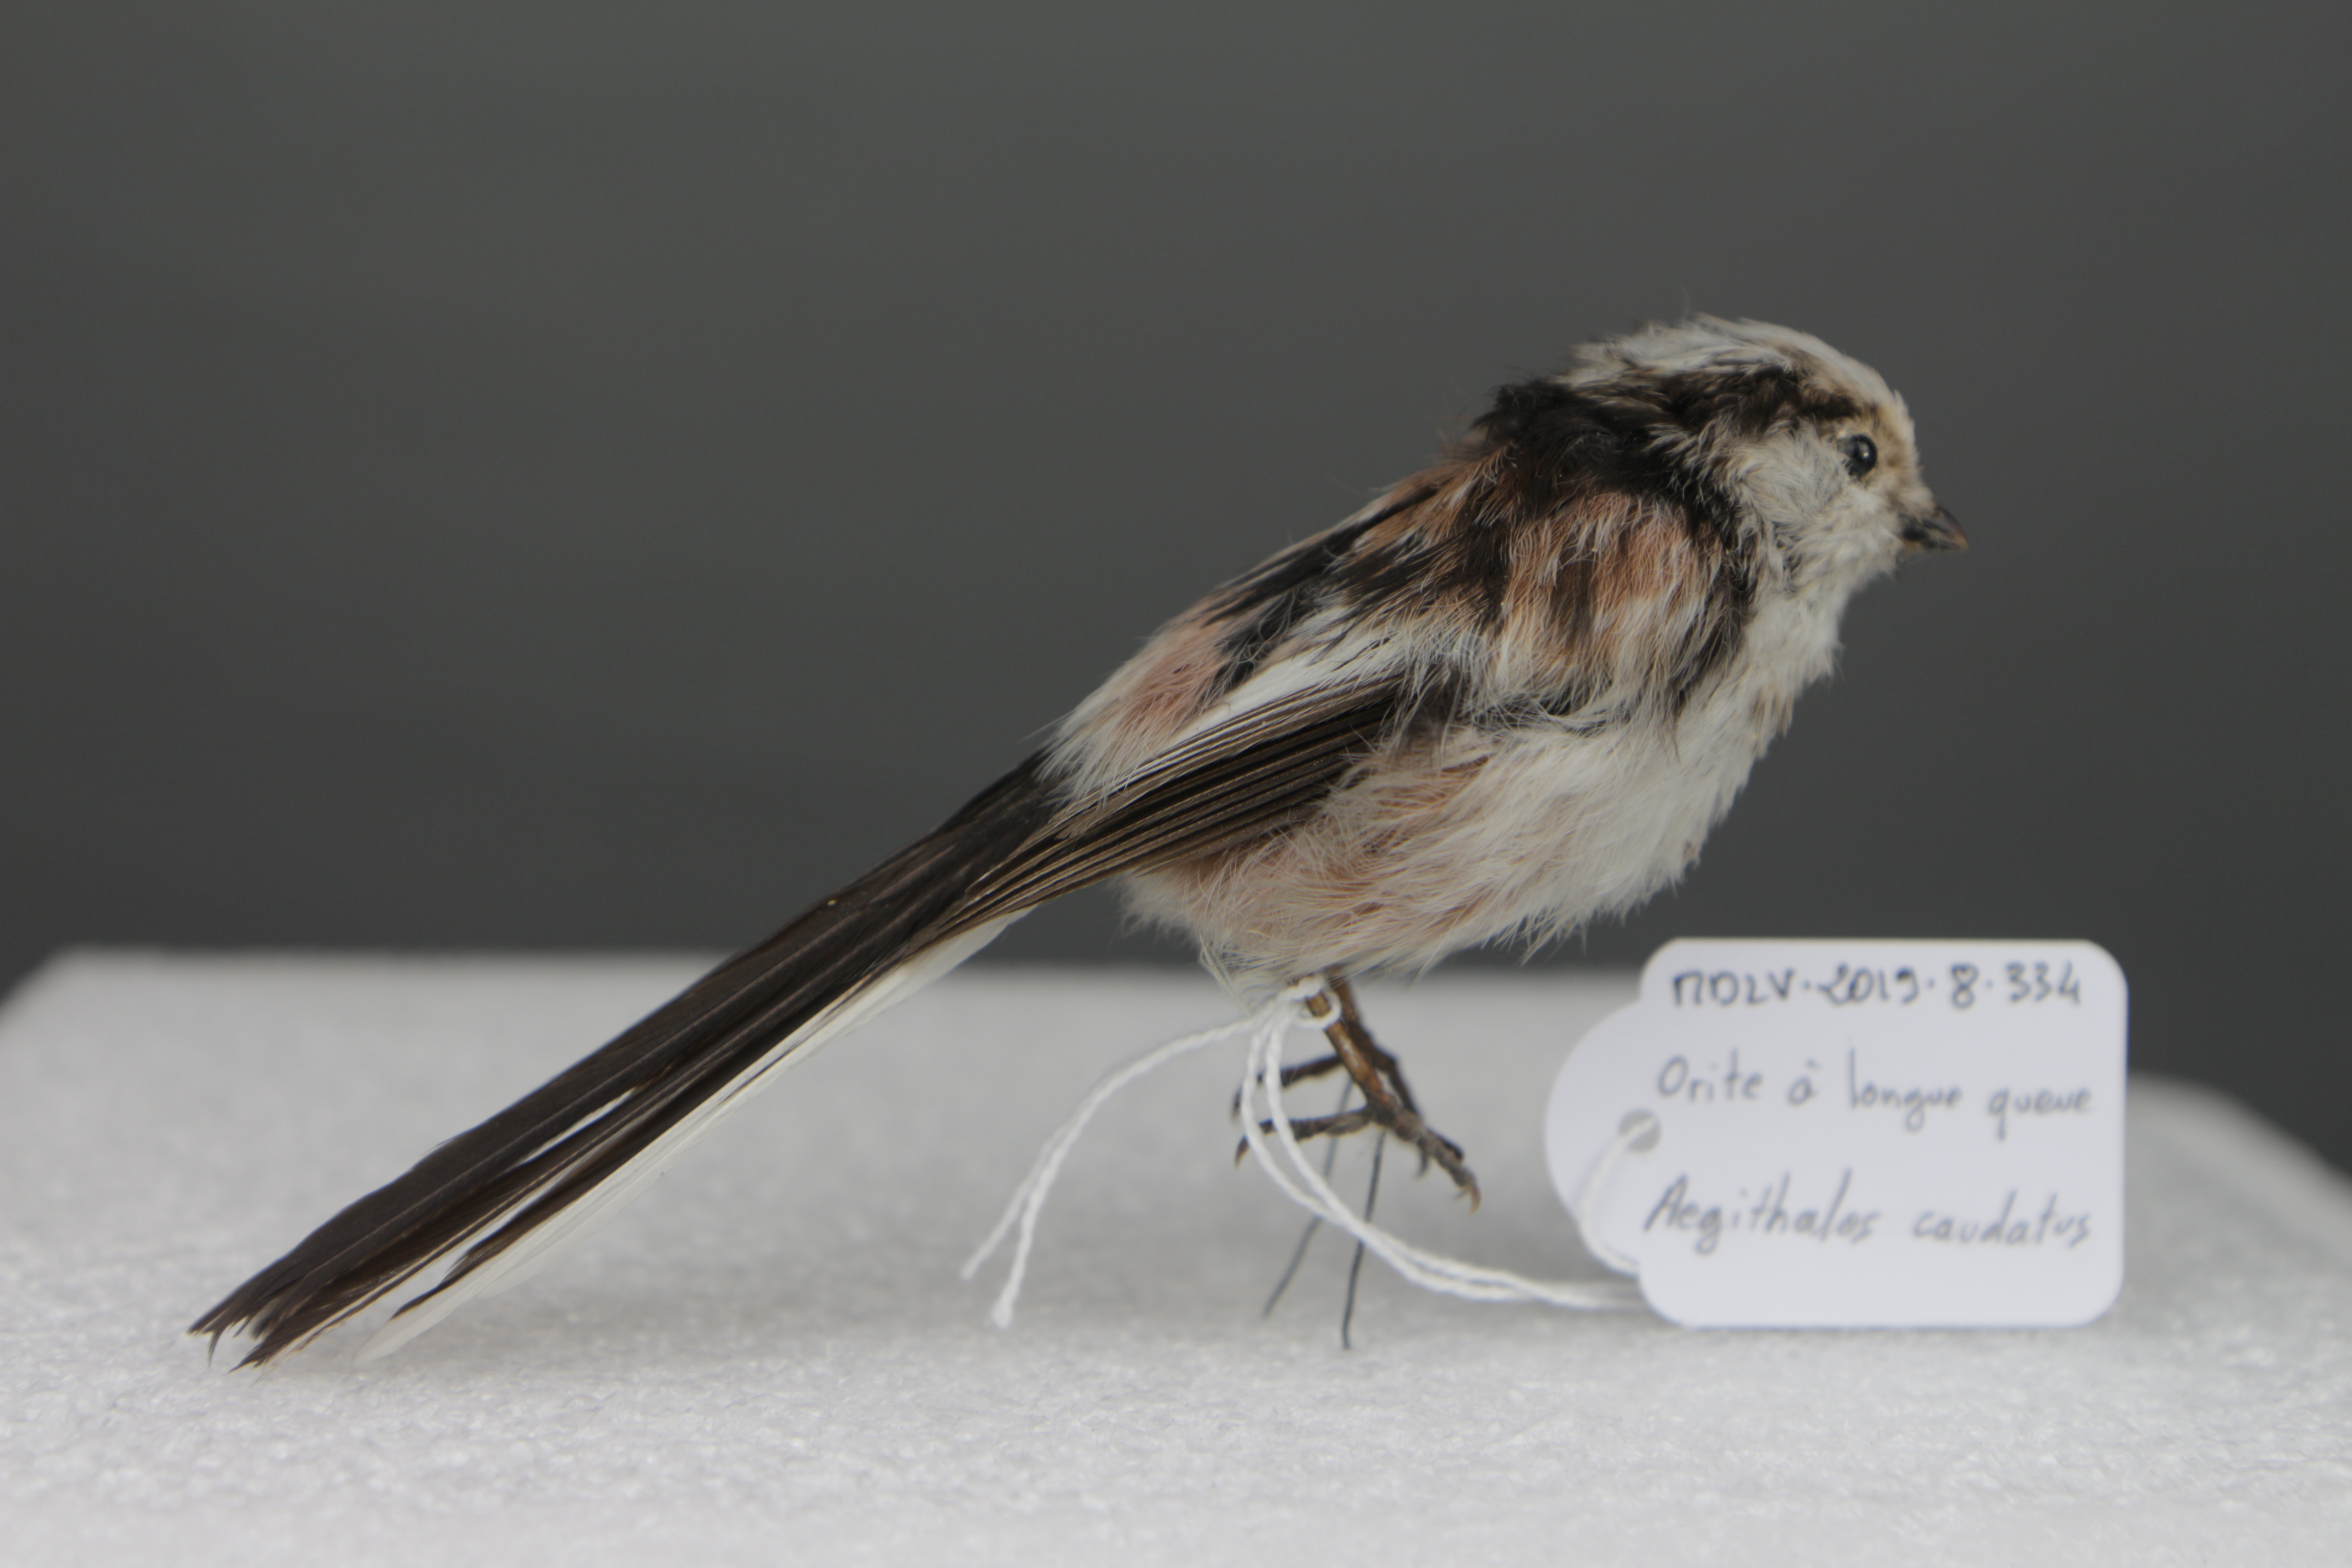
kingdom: Animalia
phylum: Chordata
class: Aves
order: Passeriformes
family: Aegithalidae
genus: Aegithalos
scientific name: Aegithalos caudatus
